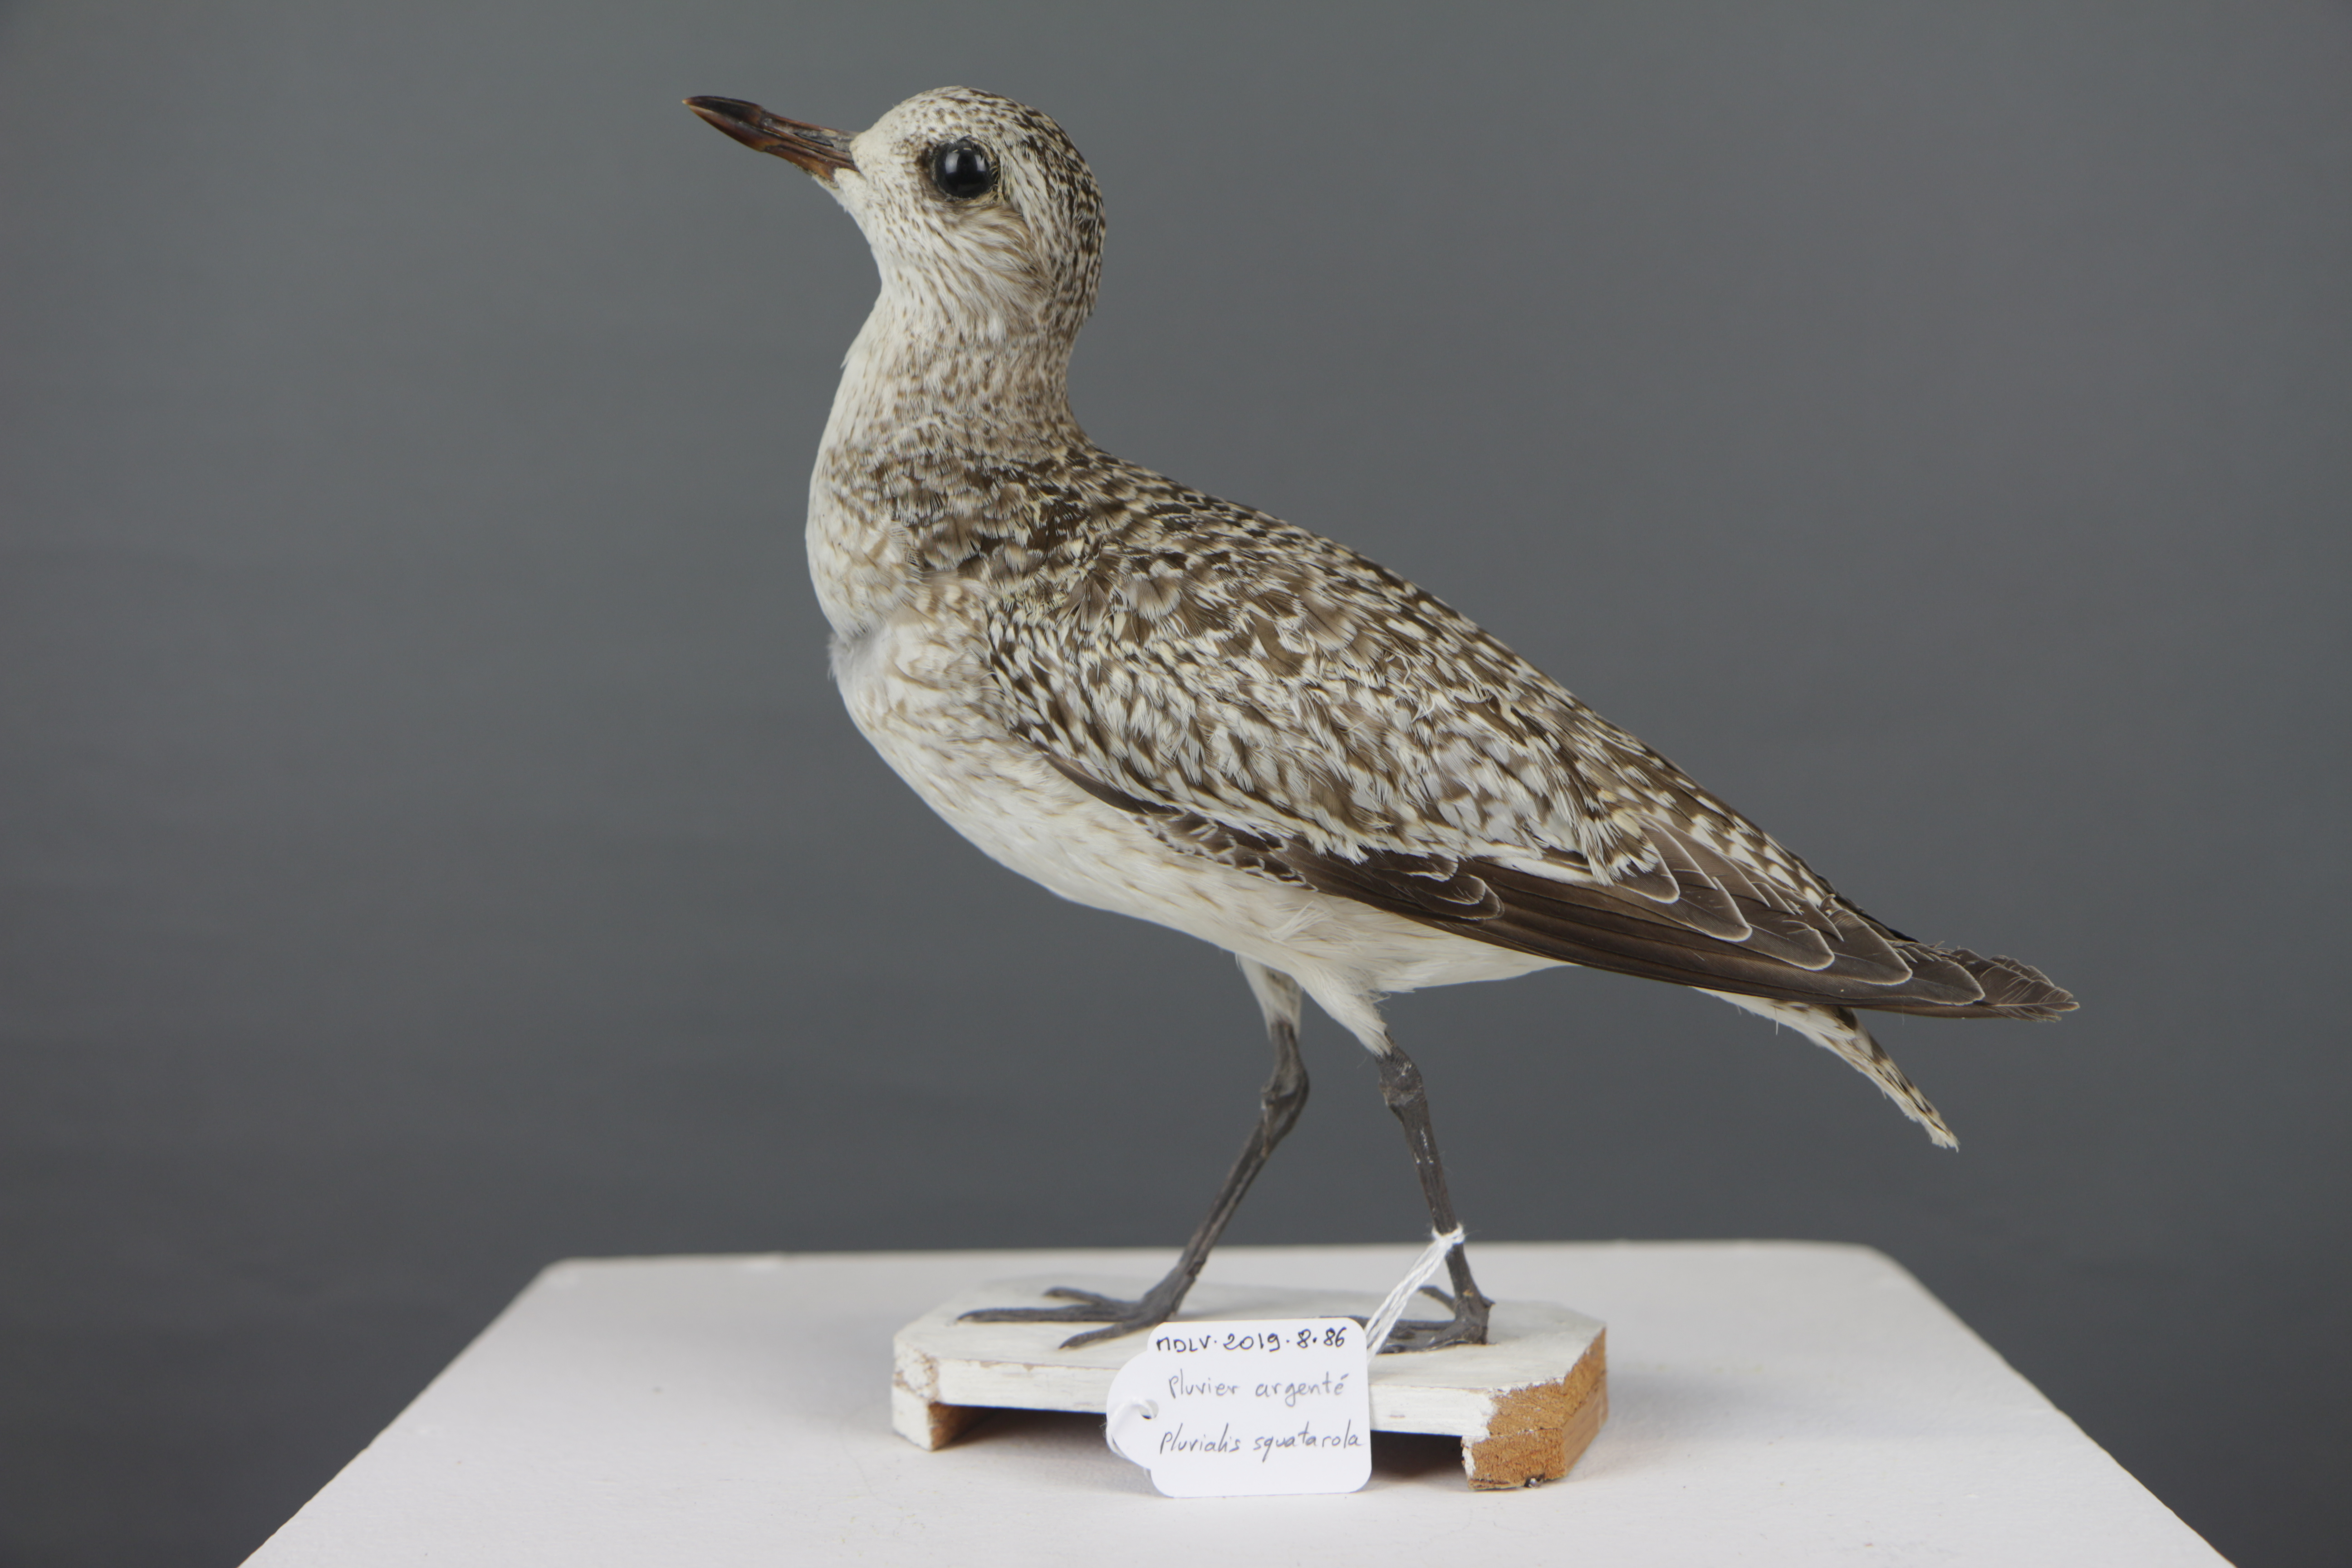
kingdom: Animalia
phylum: Chordata
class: Aves
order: Charadriiformes
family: Charadriidae
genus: Pluvialis
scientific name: Pluvialis squatarola
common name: Grey plover
